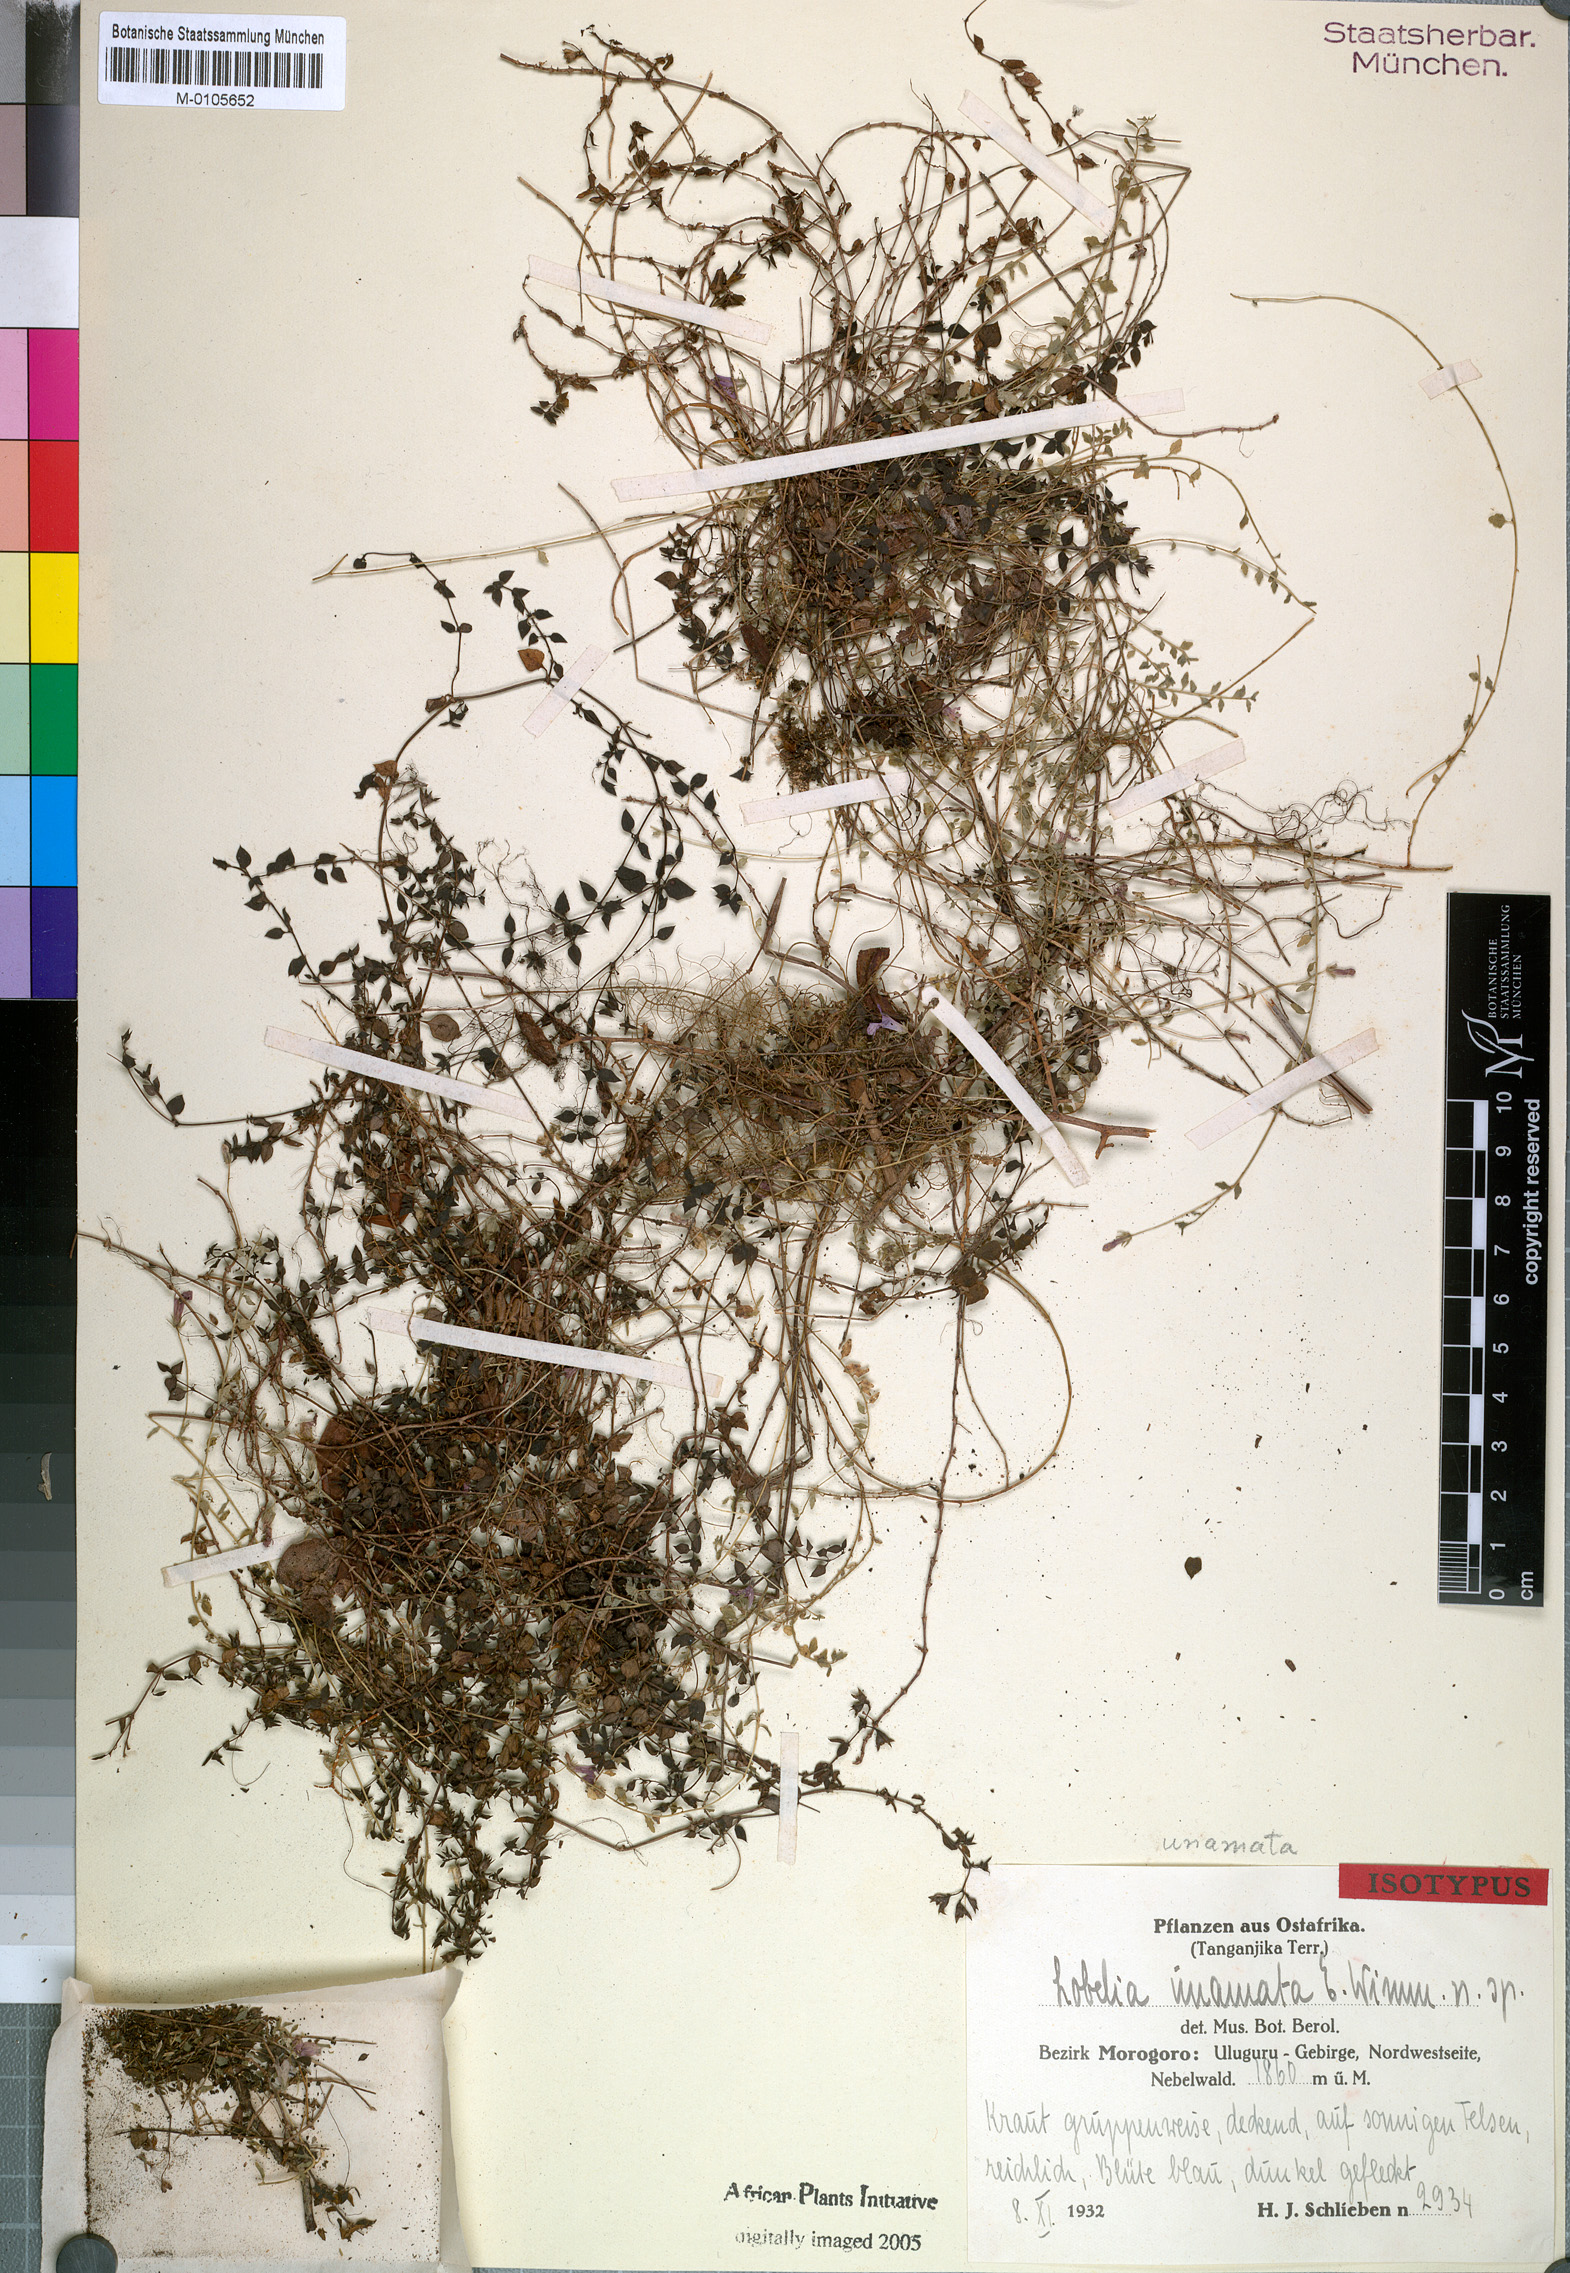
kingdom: Plantae
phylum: Tracheophyta
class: Magnoliopsida
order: Asterales
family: Campanulaceae
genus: Lobelia
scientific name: Lobelia gilgii
